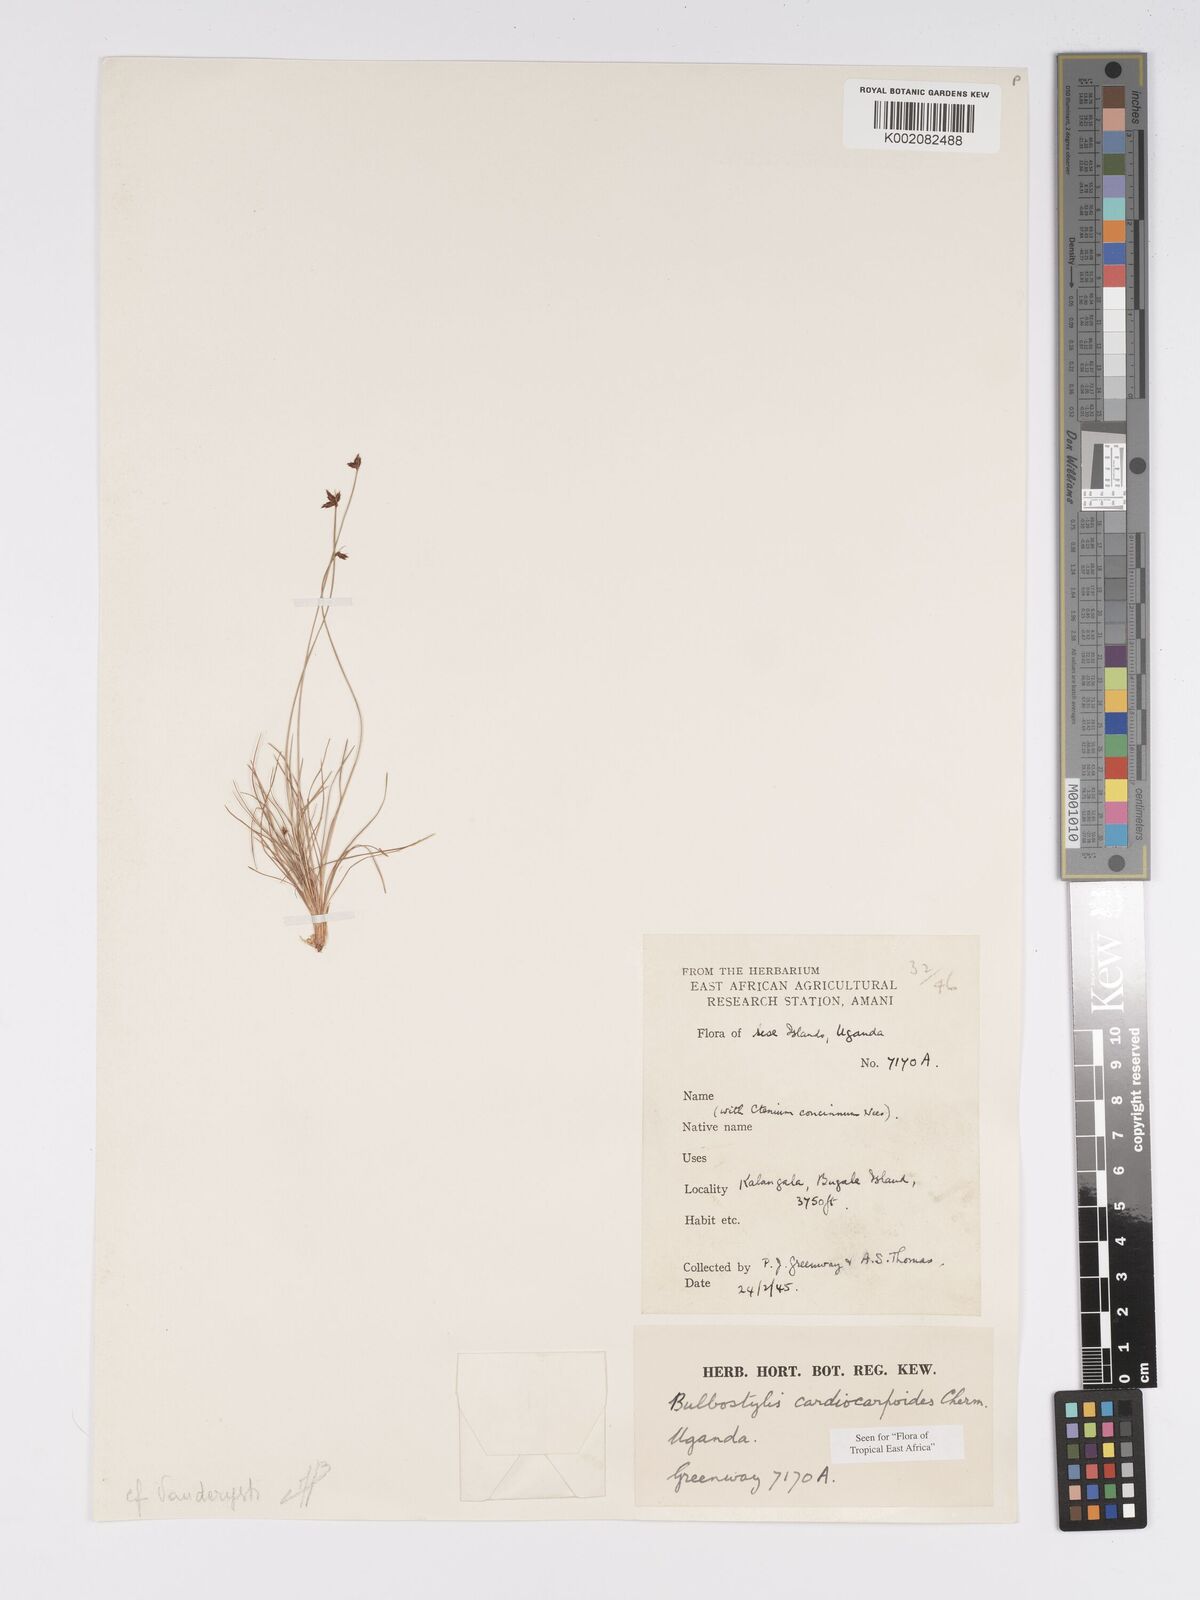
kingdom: Plantae
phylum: Tracheophyta
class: Liliopsida
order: Poales
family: Cyperaceae
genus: Bulbostylis
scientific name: Bulbostylis cardiocarpoides
